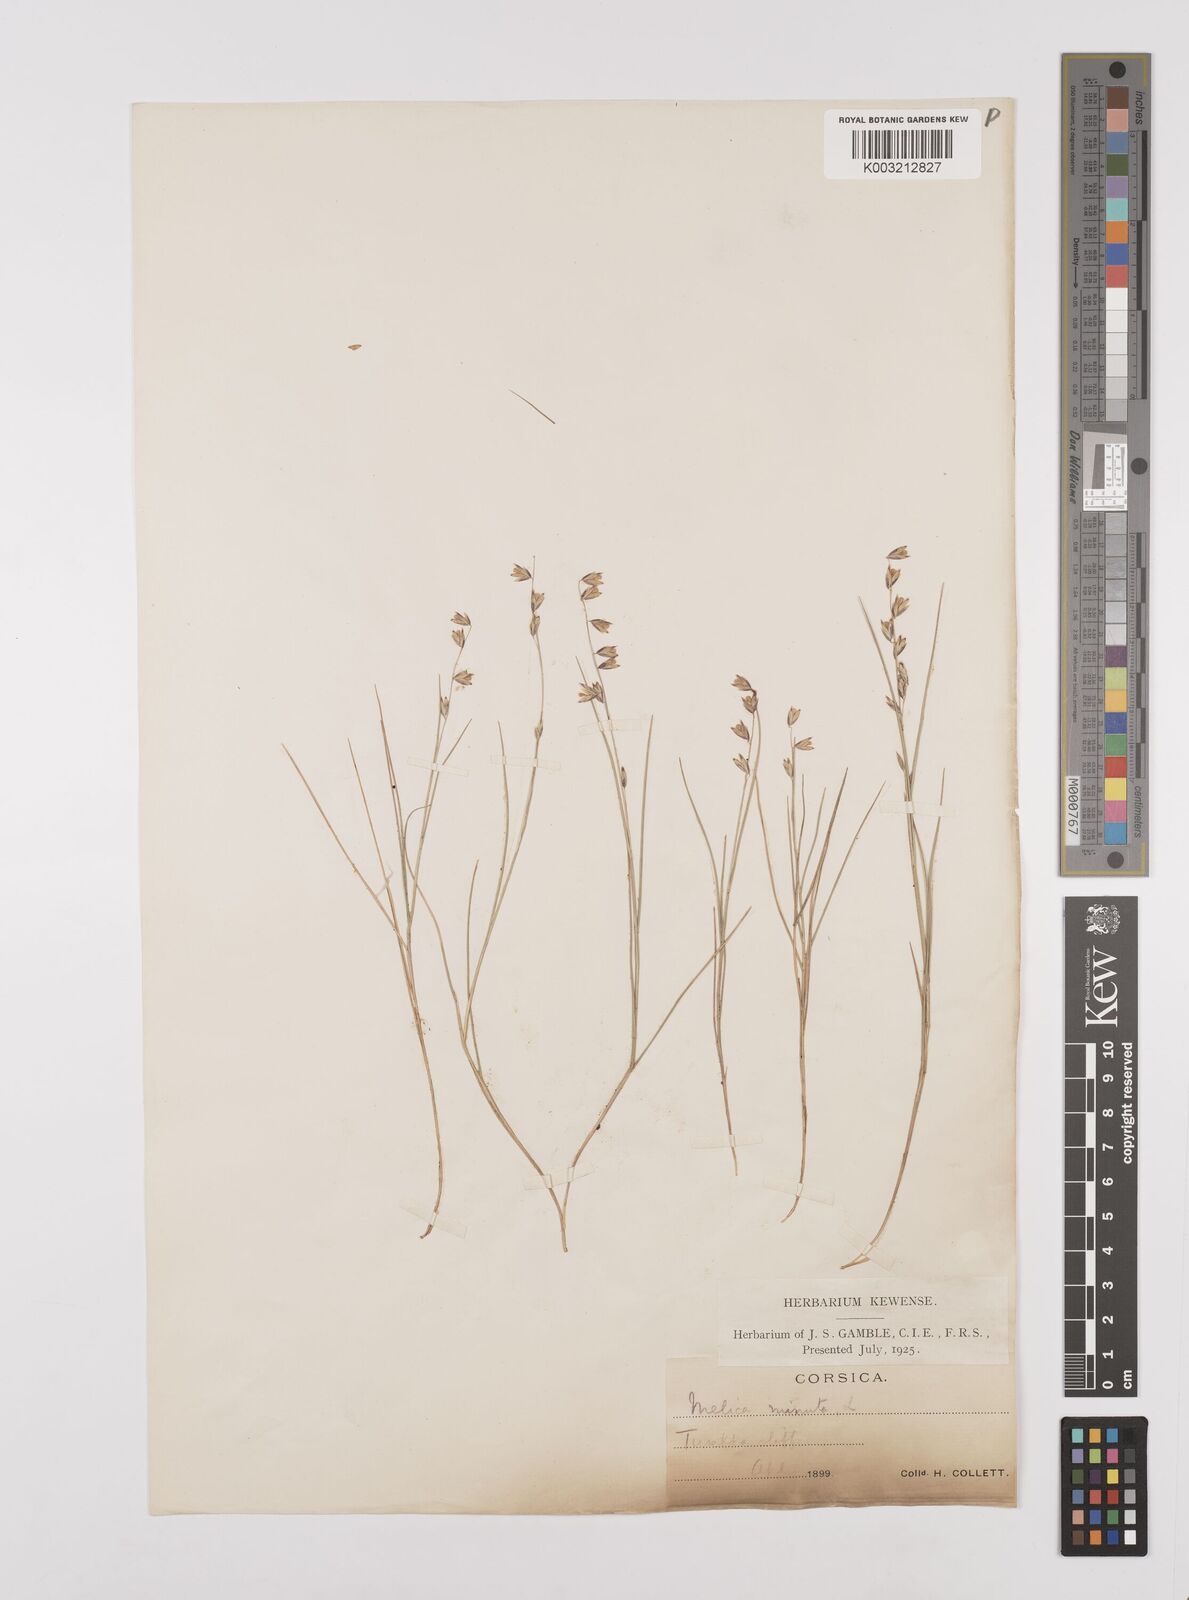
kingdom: Plantae
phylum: Tracheophyta
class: Liliopsida
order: Poales
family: Poaceae
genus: Melica
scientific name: Melica minuta
